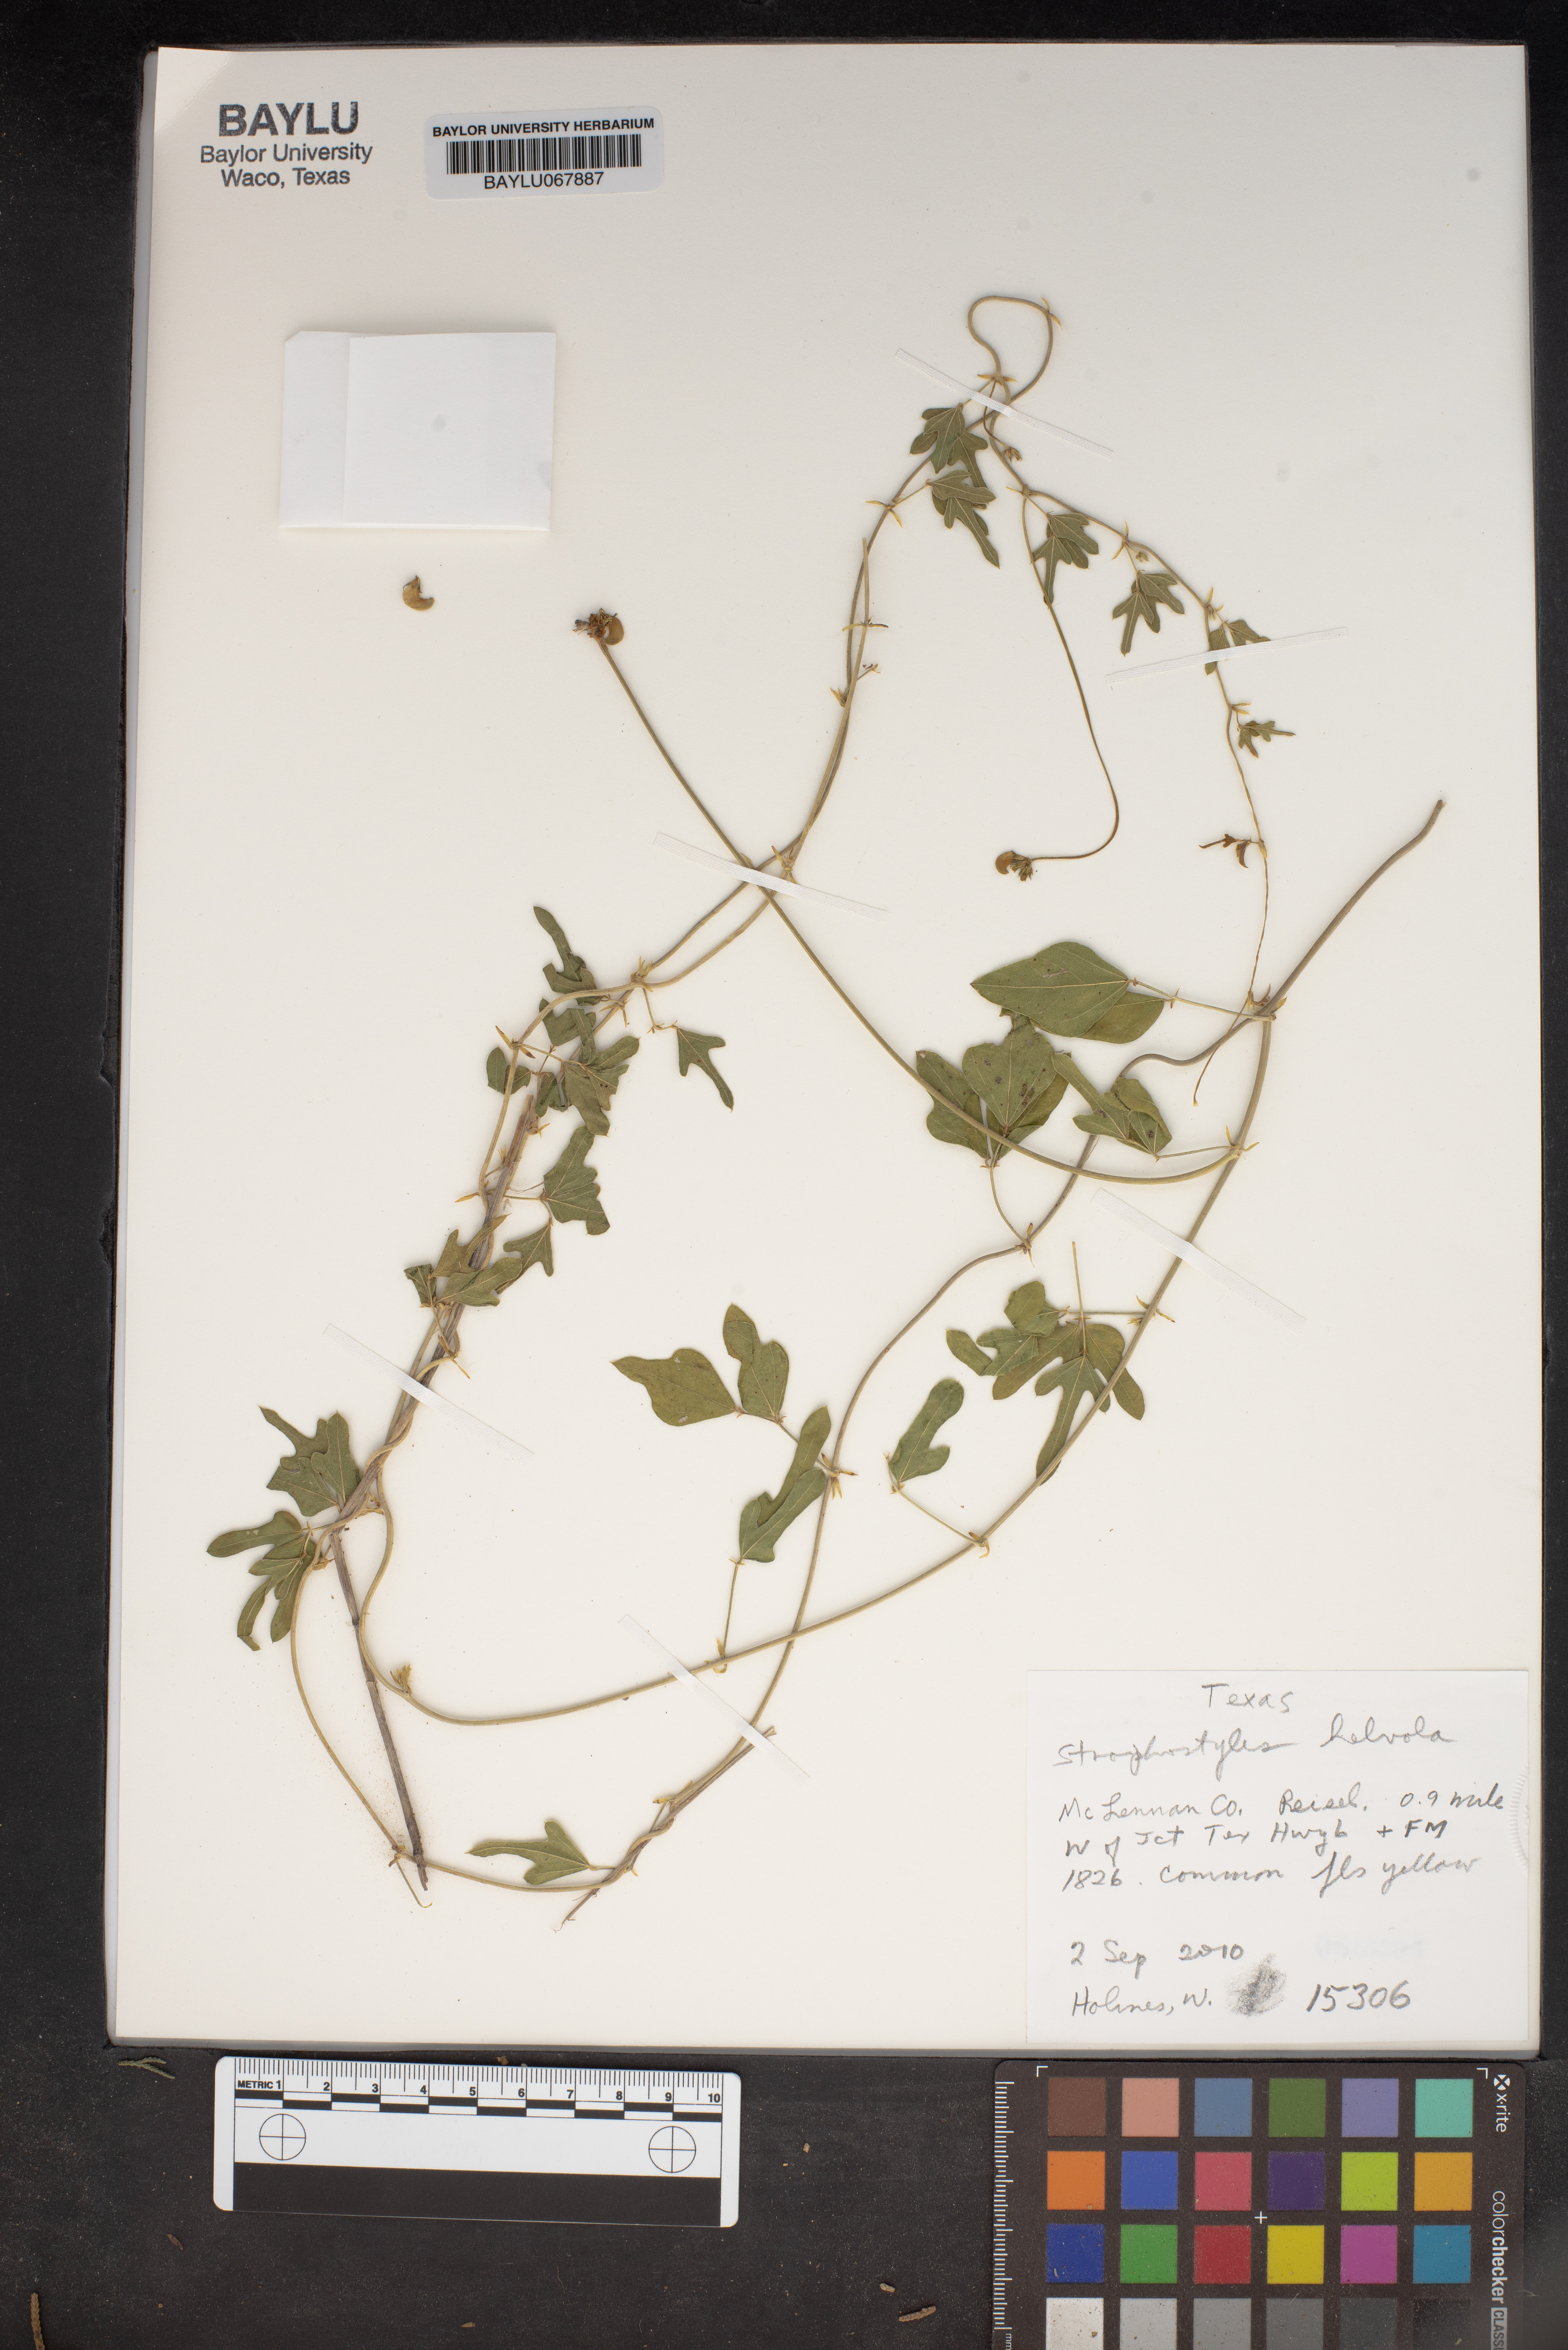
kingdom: Plantae
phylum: Tracheophyta
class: Magnoliopsida
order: Fabales
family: Fabaceae
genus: Strophostyles
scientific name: Strophostyles helvola
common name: Trailing wild bean
